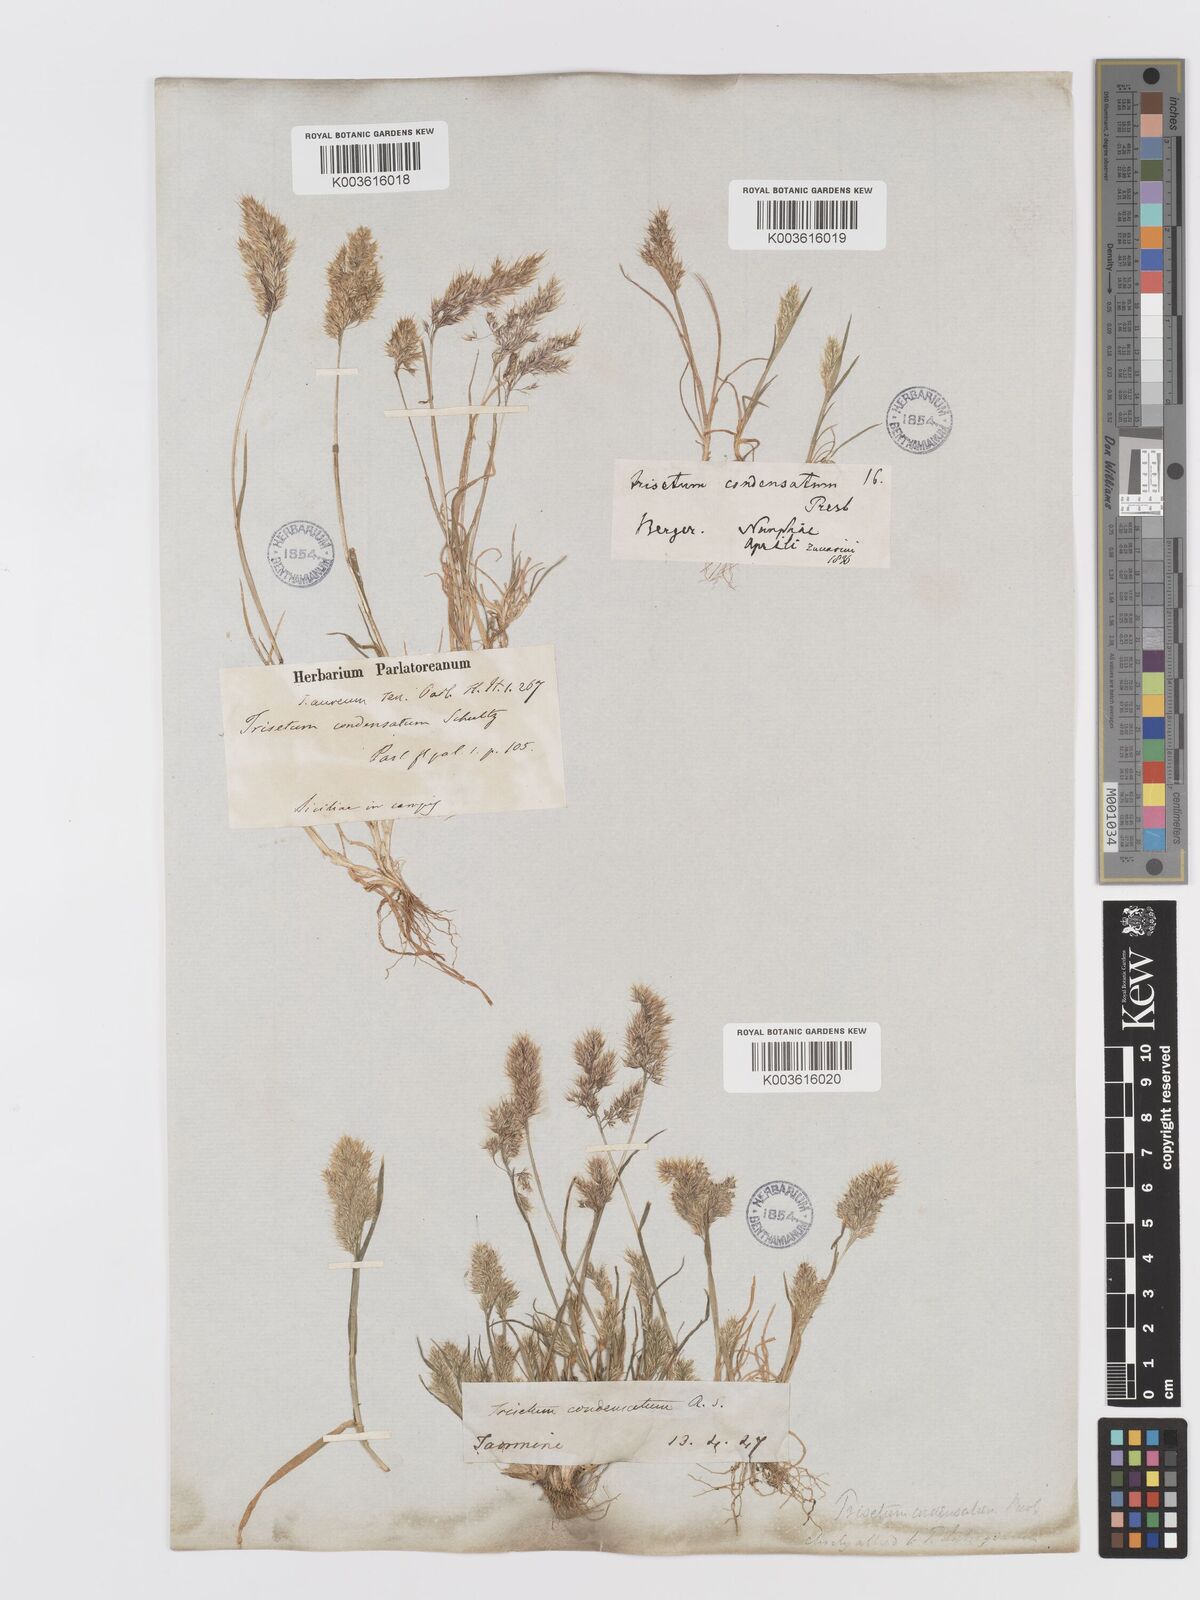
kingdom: Plantae
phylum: Tracheophyta
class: Liliopsida
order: Poales
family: Poaceae
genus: Trisetaria
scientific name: Trisetaria aurea
